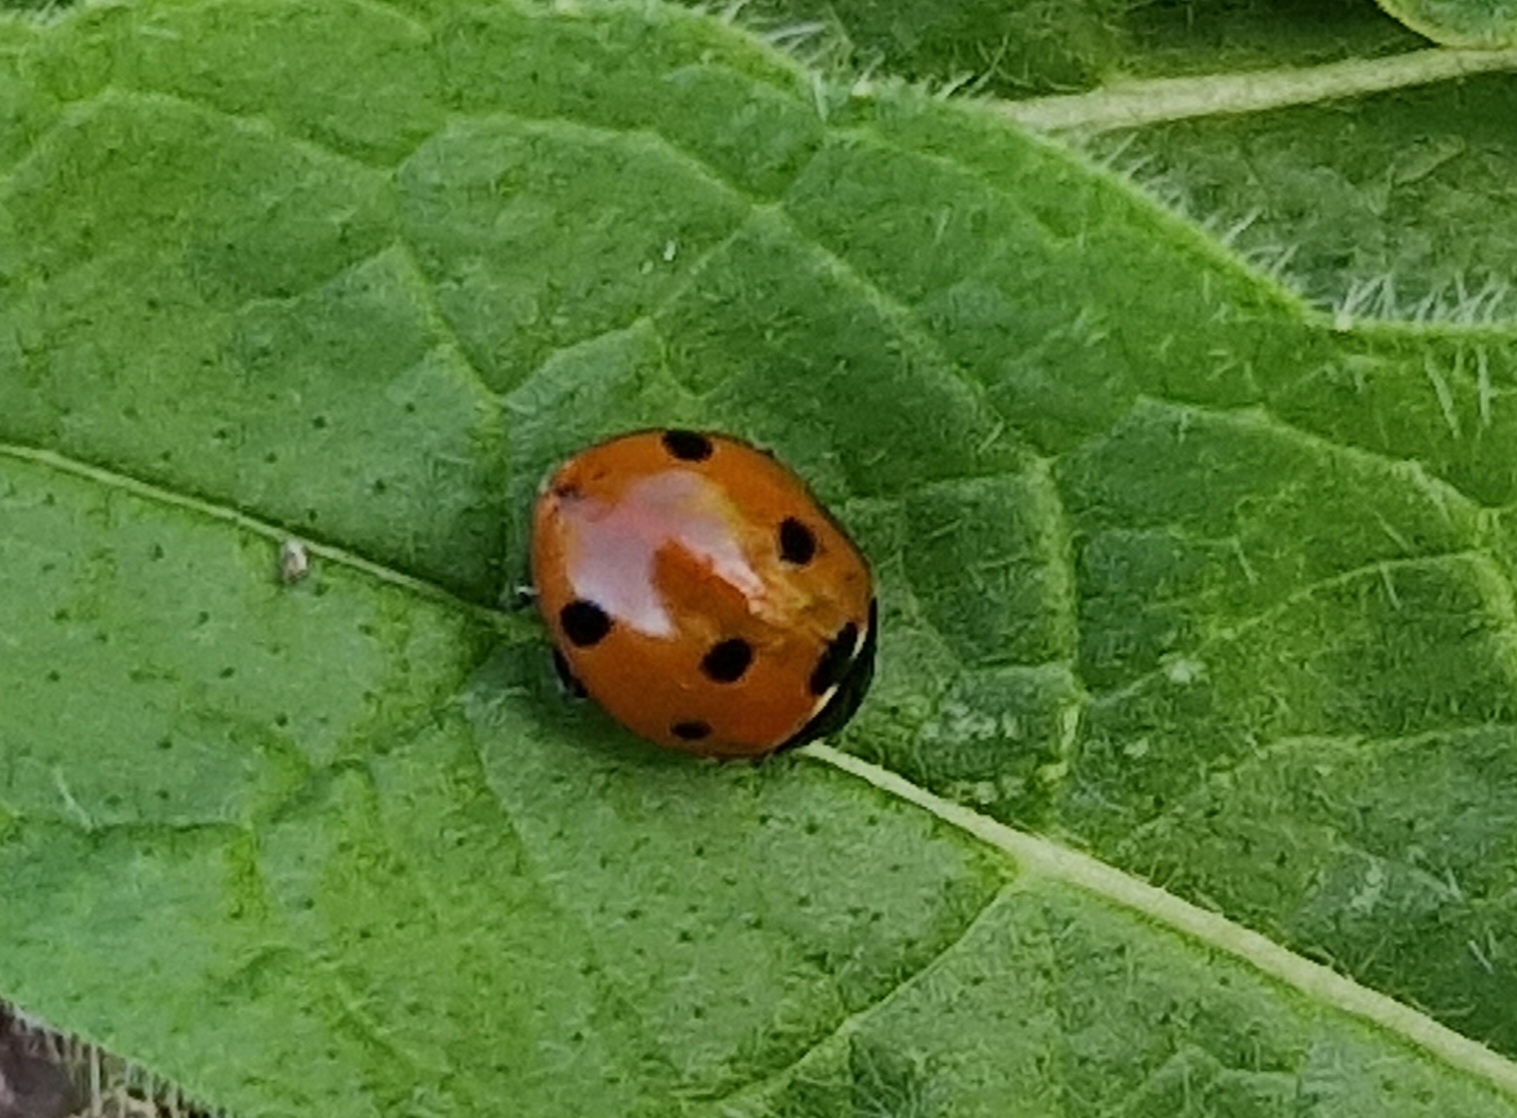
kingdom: Animalia
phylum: Arthropoda
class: Insecta
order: Coleoptera
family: Coccinellidae
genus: Coccinella
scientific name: Coccinella septempunctata
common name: Syvplettet mariehøne
